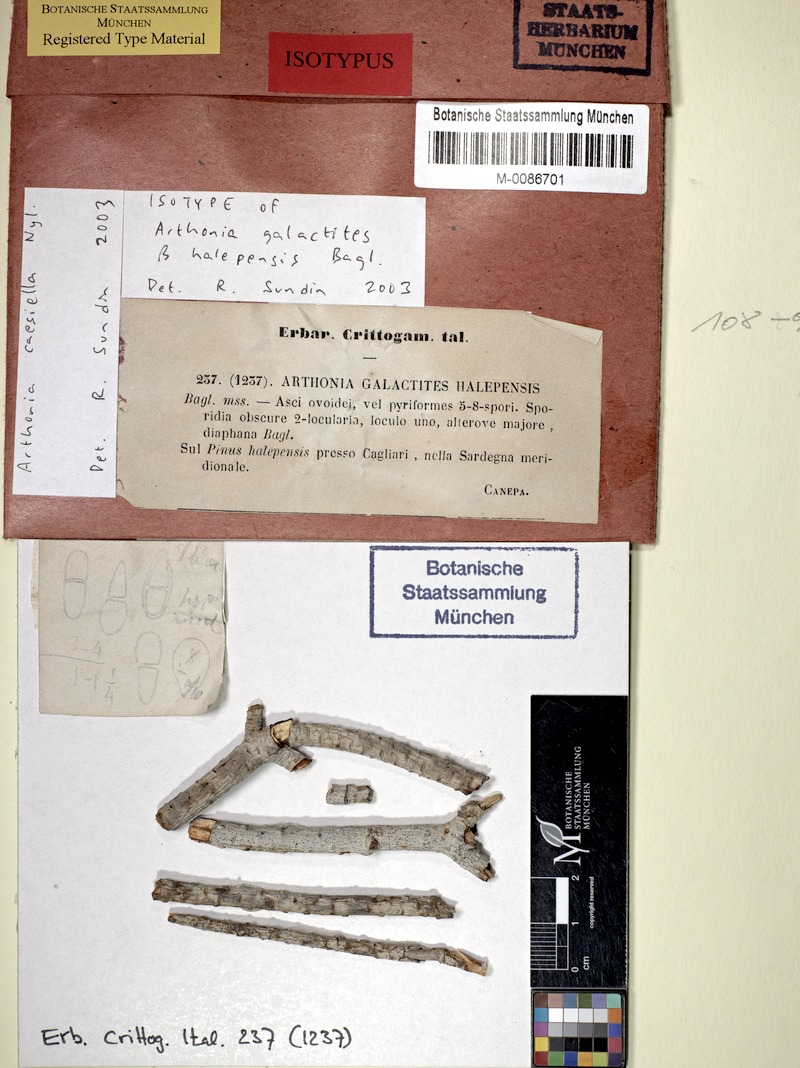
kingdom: Fungi
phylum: Ascomycota
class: Arthoniomycetes
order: Arthoniales
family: Arthoniaceae
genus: Arthonia
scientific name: Arthonia caesiella
